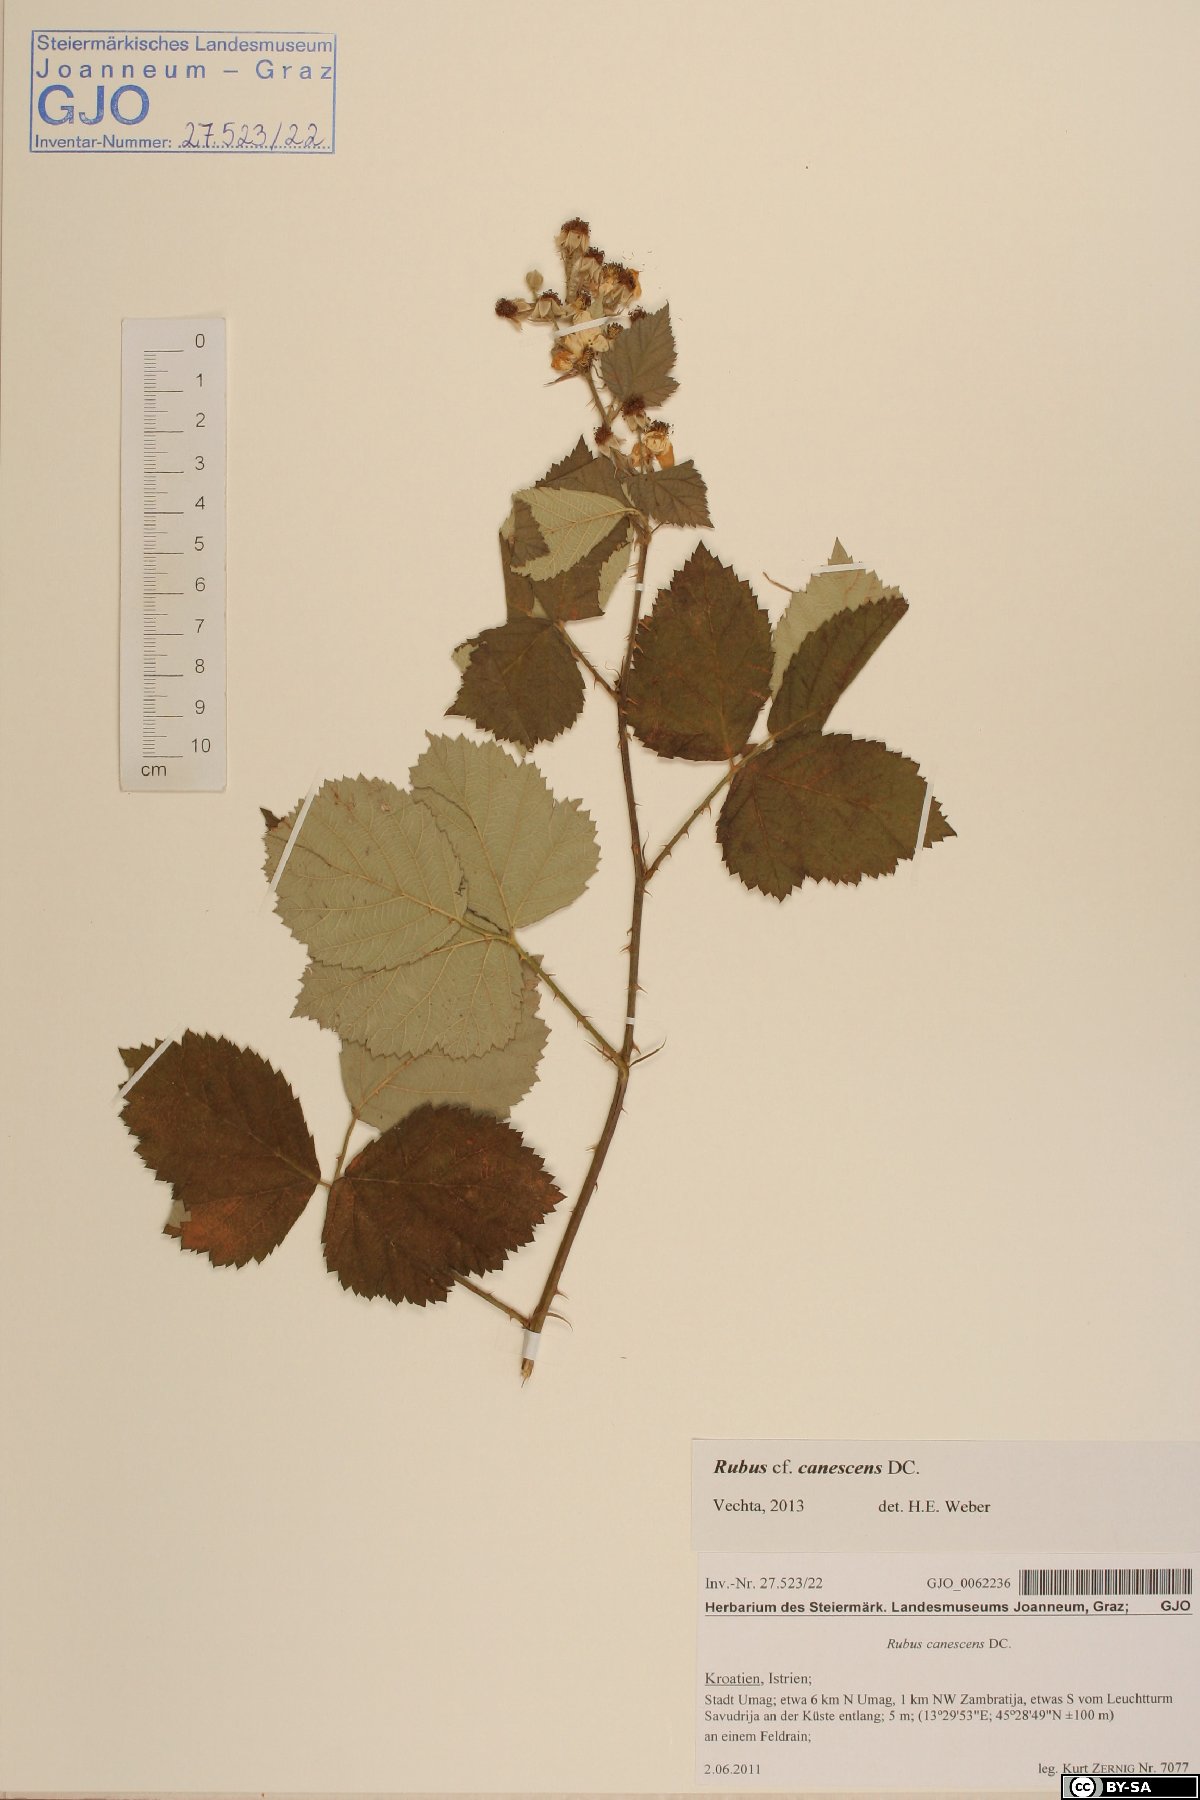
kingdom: Plantae
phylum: Tracheophyta
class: Magnoliopsida
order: Boraginales
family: Boraginaceae
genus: Buglossoides
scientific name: Buglossoides arvensis
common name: Corn gromwell
